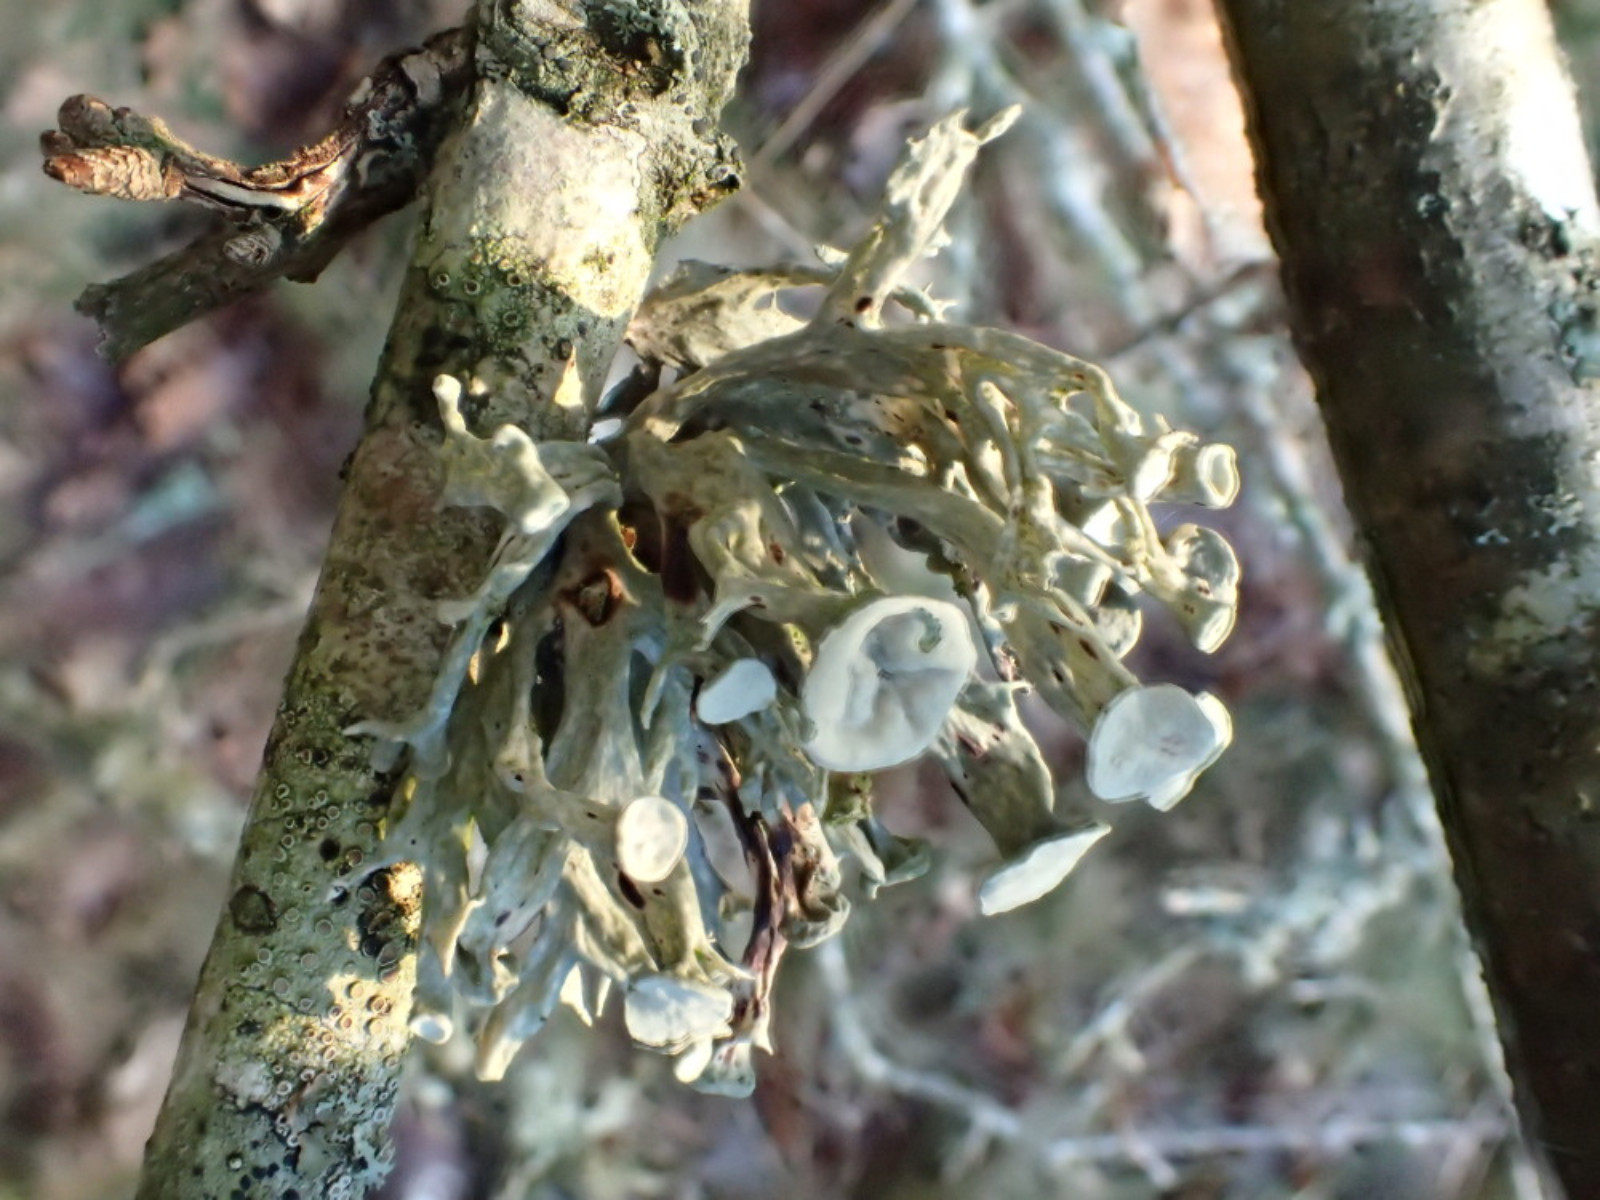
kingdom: Fungi
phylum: Ascomycota
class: Lecanoromycetes
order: Lecanorales
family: Ramalinaceae
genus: Ramalina
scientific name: Ramalina fastigiata
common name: tue-grenlav
